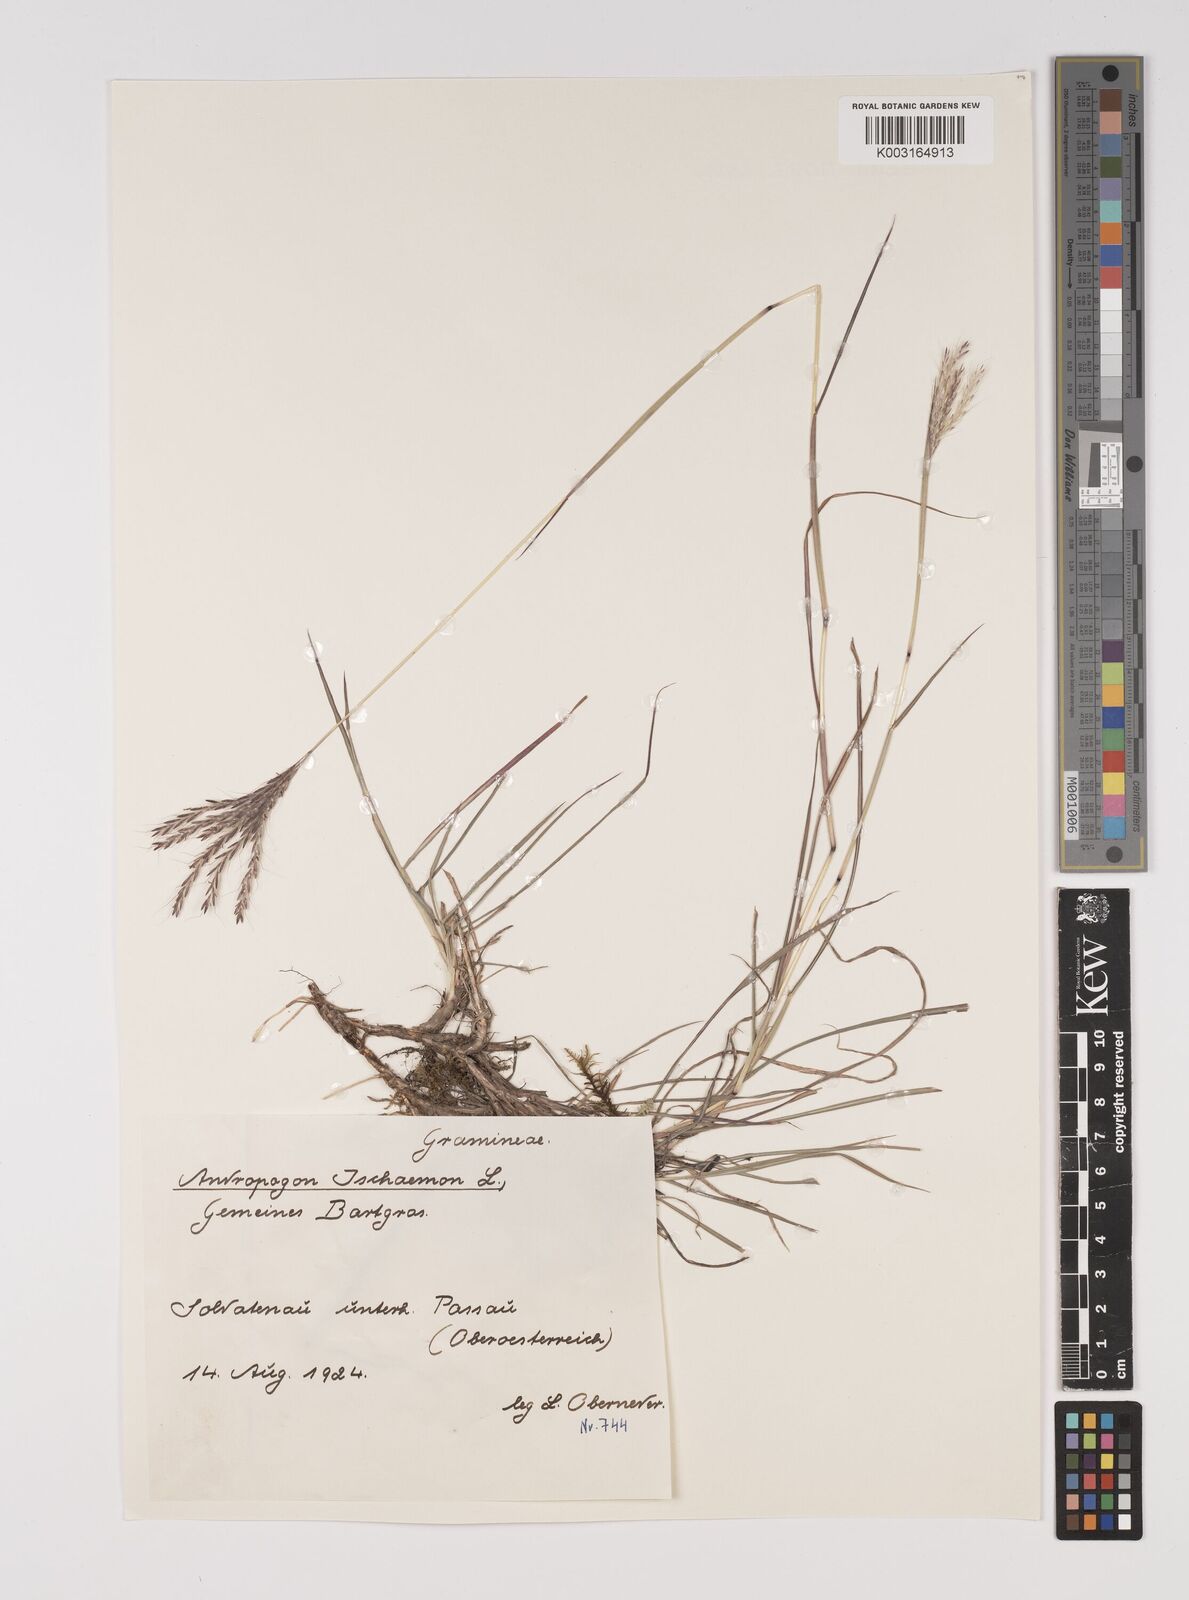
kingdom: Plantae
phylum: Tracheophyta
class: Liliopsida
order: Poales
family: Poaceae
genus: Bothriochloa
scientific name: Bothriochloa ischaemum
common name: Yellow bluestem
